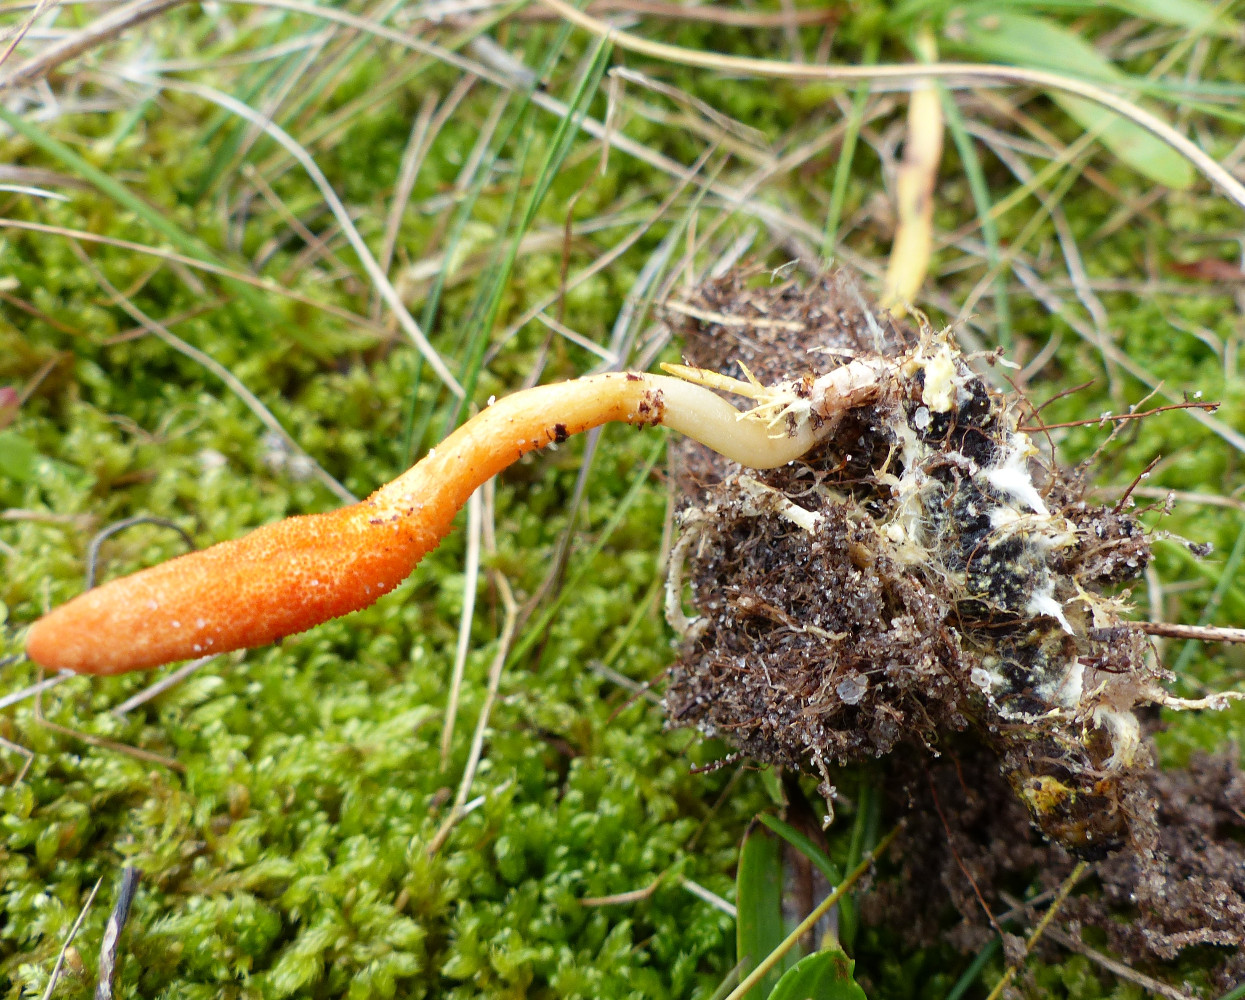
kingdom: Fungi
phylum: Ascomycota
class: Sordariomycetes
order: Hypocreales
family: Cordycipitaceae
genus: Cordyceps
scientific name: Cordyceps militaris
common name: puppe-snyltekølle
